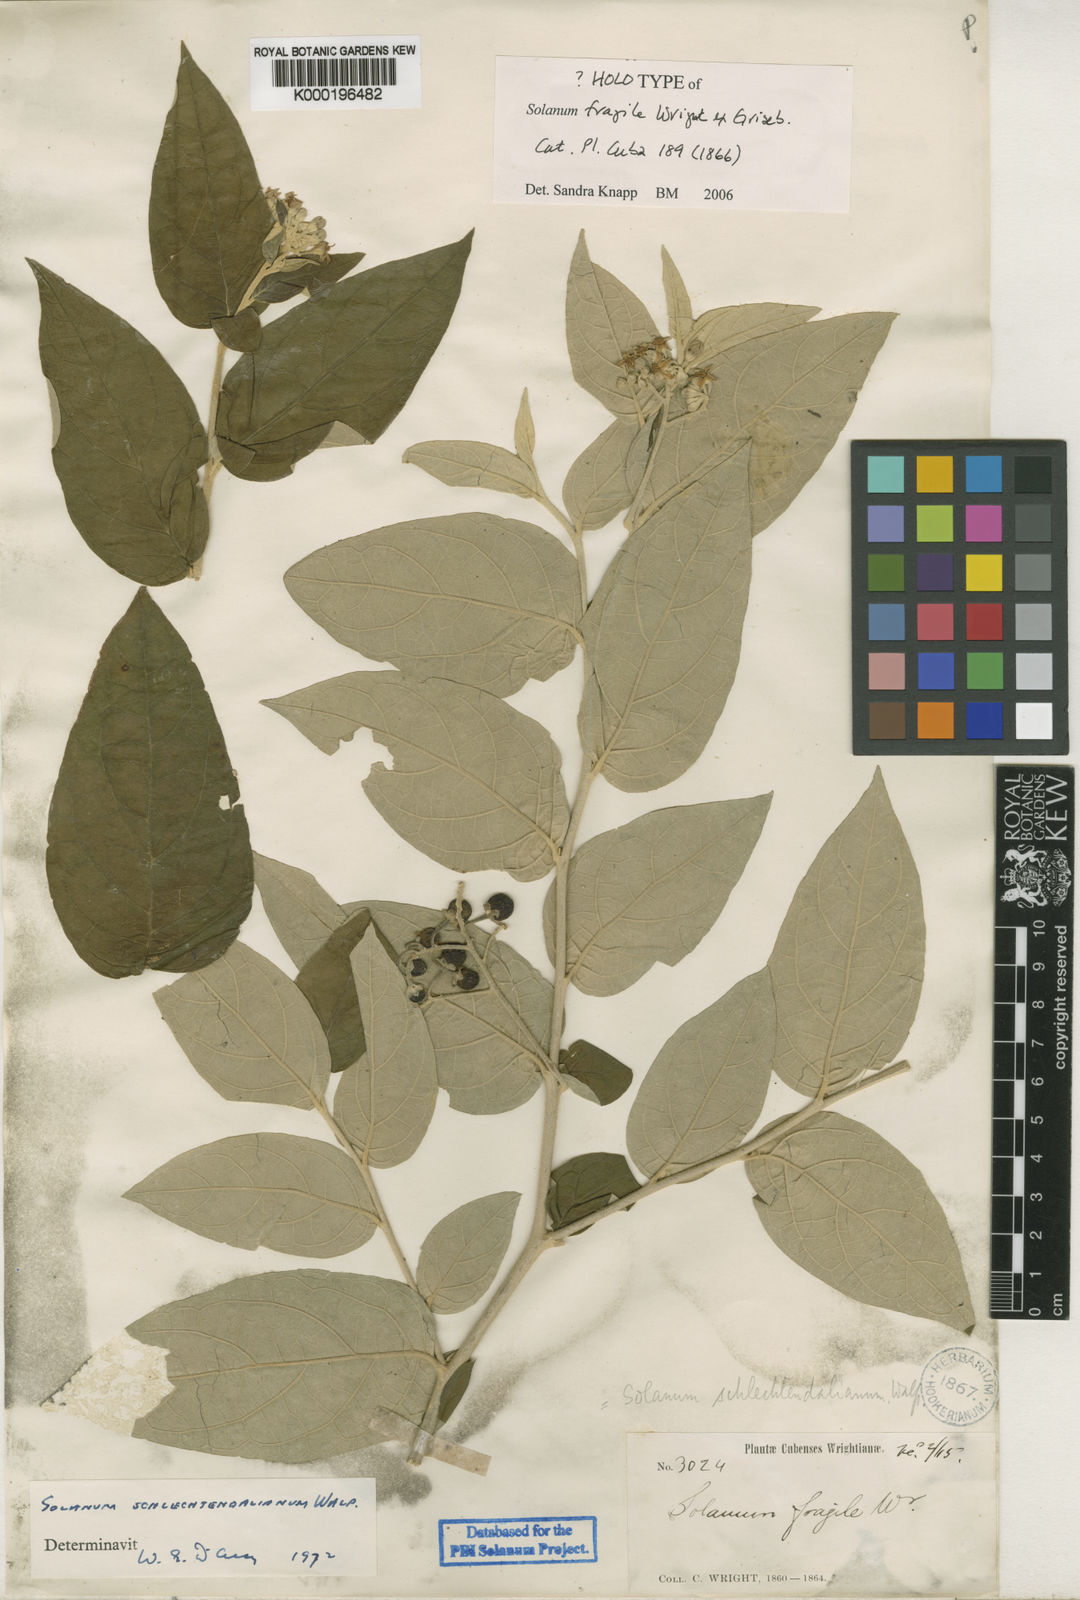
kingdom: Plantae
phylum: Tracheophyta
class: Magnoliopsida
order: Solanales
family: Solanaceae
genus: Solanum
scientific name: Solanum schlechtendalianum
